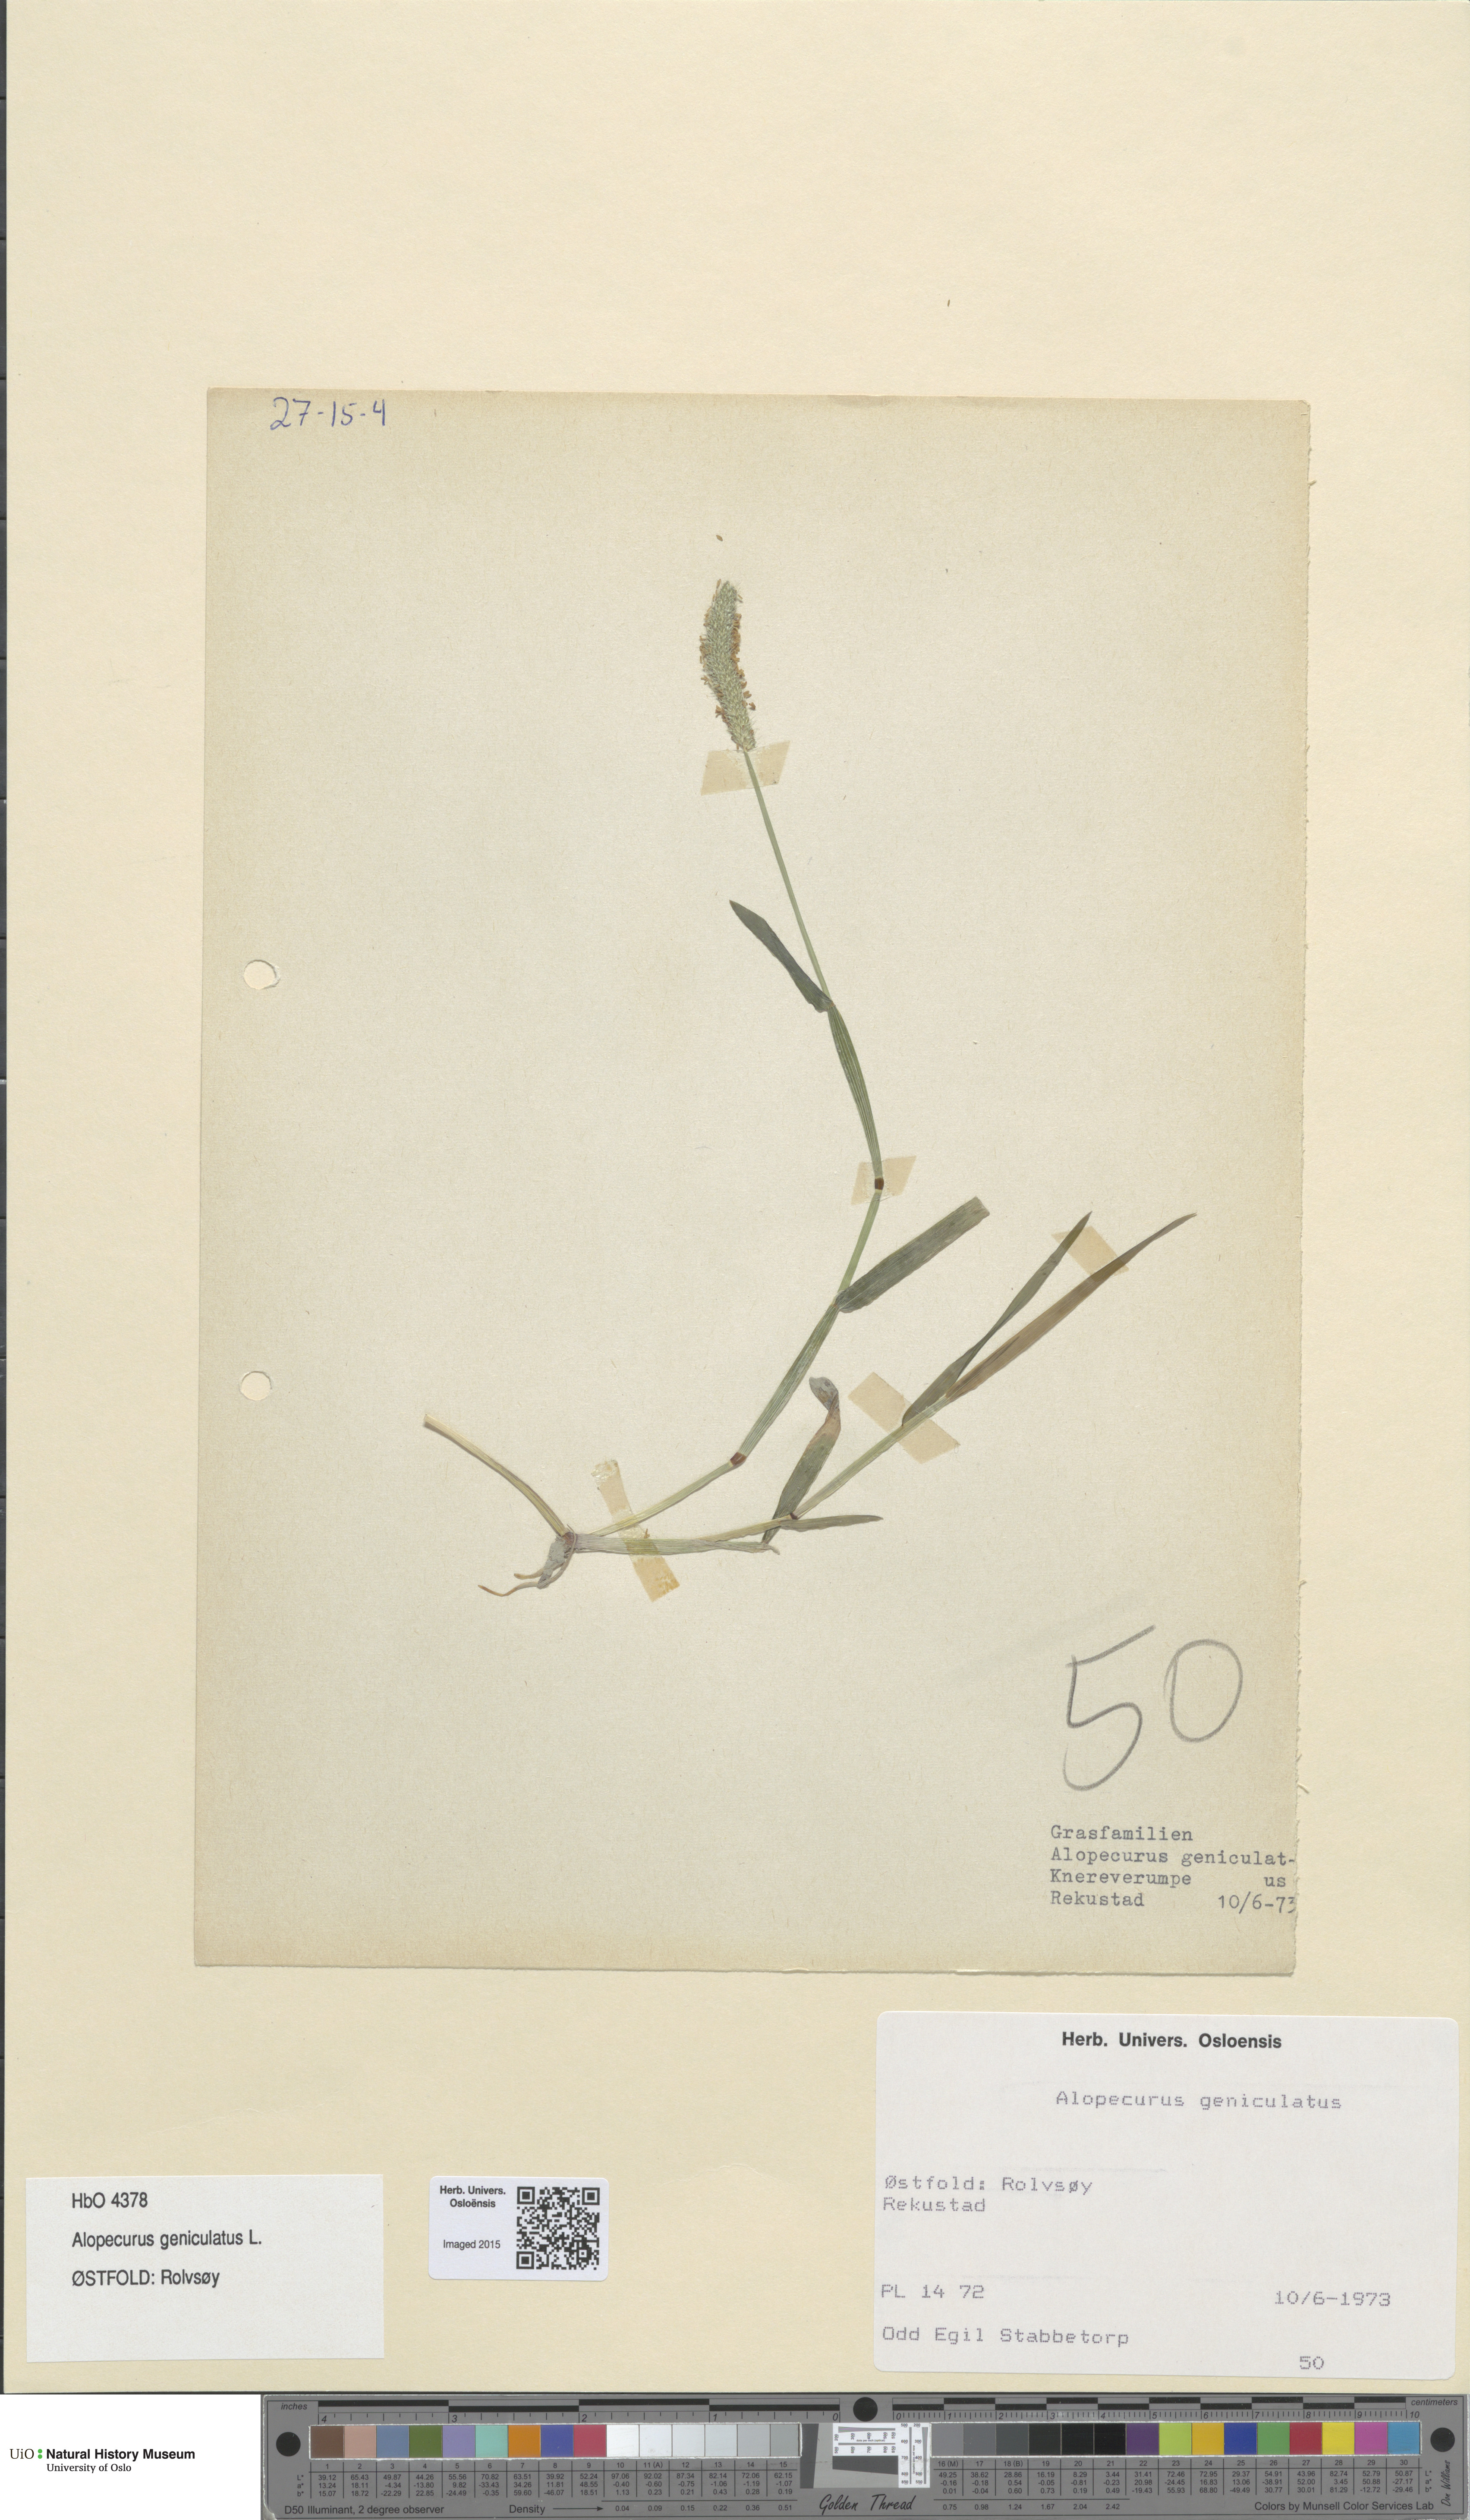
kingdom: Plantae
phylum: Tracheophyta
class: Liliopsida
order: Poales
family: Poaceae
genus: Alopecurus
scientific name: Alopecurus geniculatus
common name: Water foxtail
